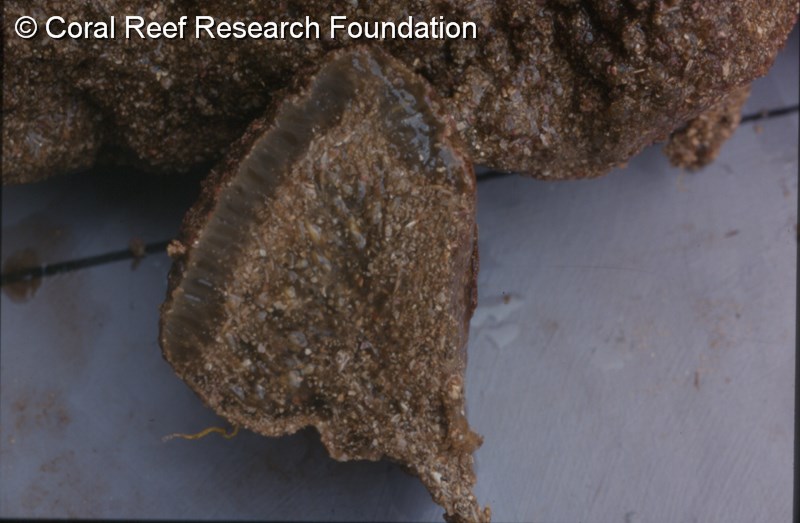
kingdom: Animalia
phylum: Chordata
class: Ascidiacea
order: Aplousobranchia
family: Polyclinidae
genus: Polyclinum
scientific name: Polyclinum isipingense
